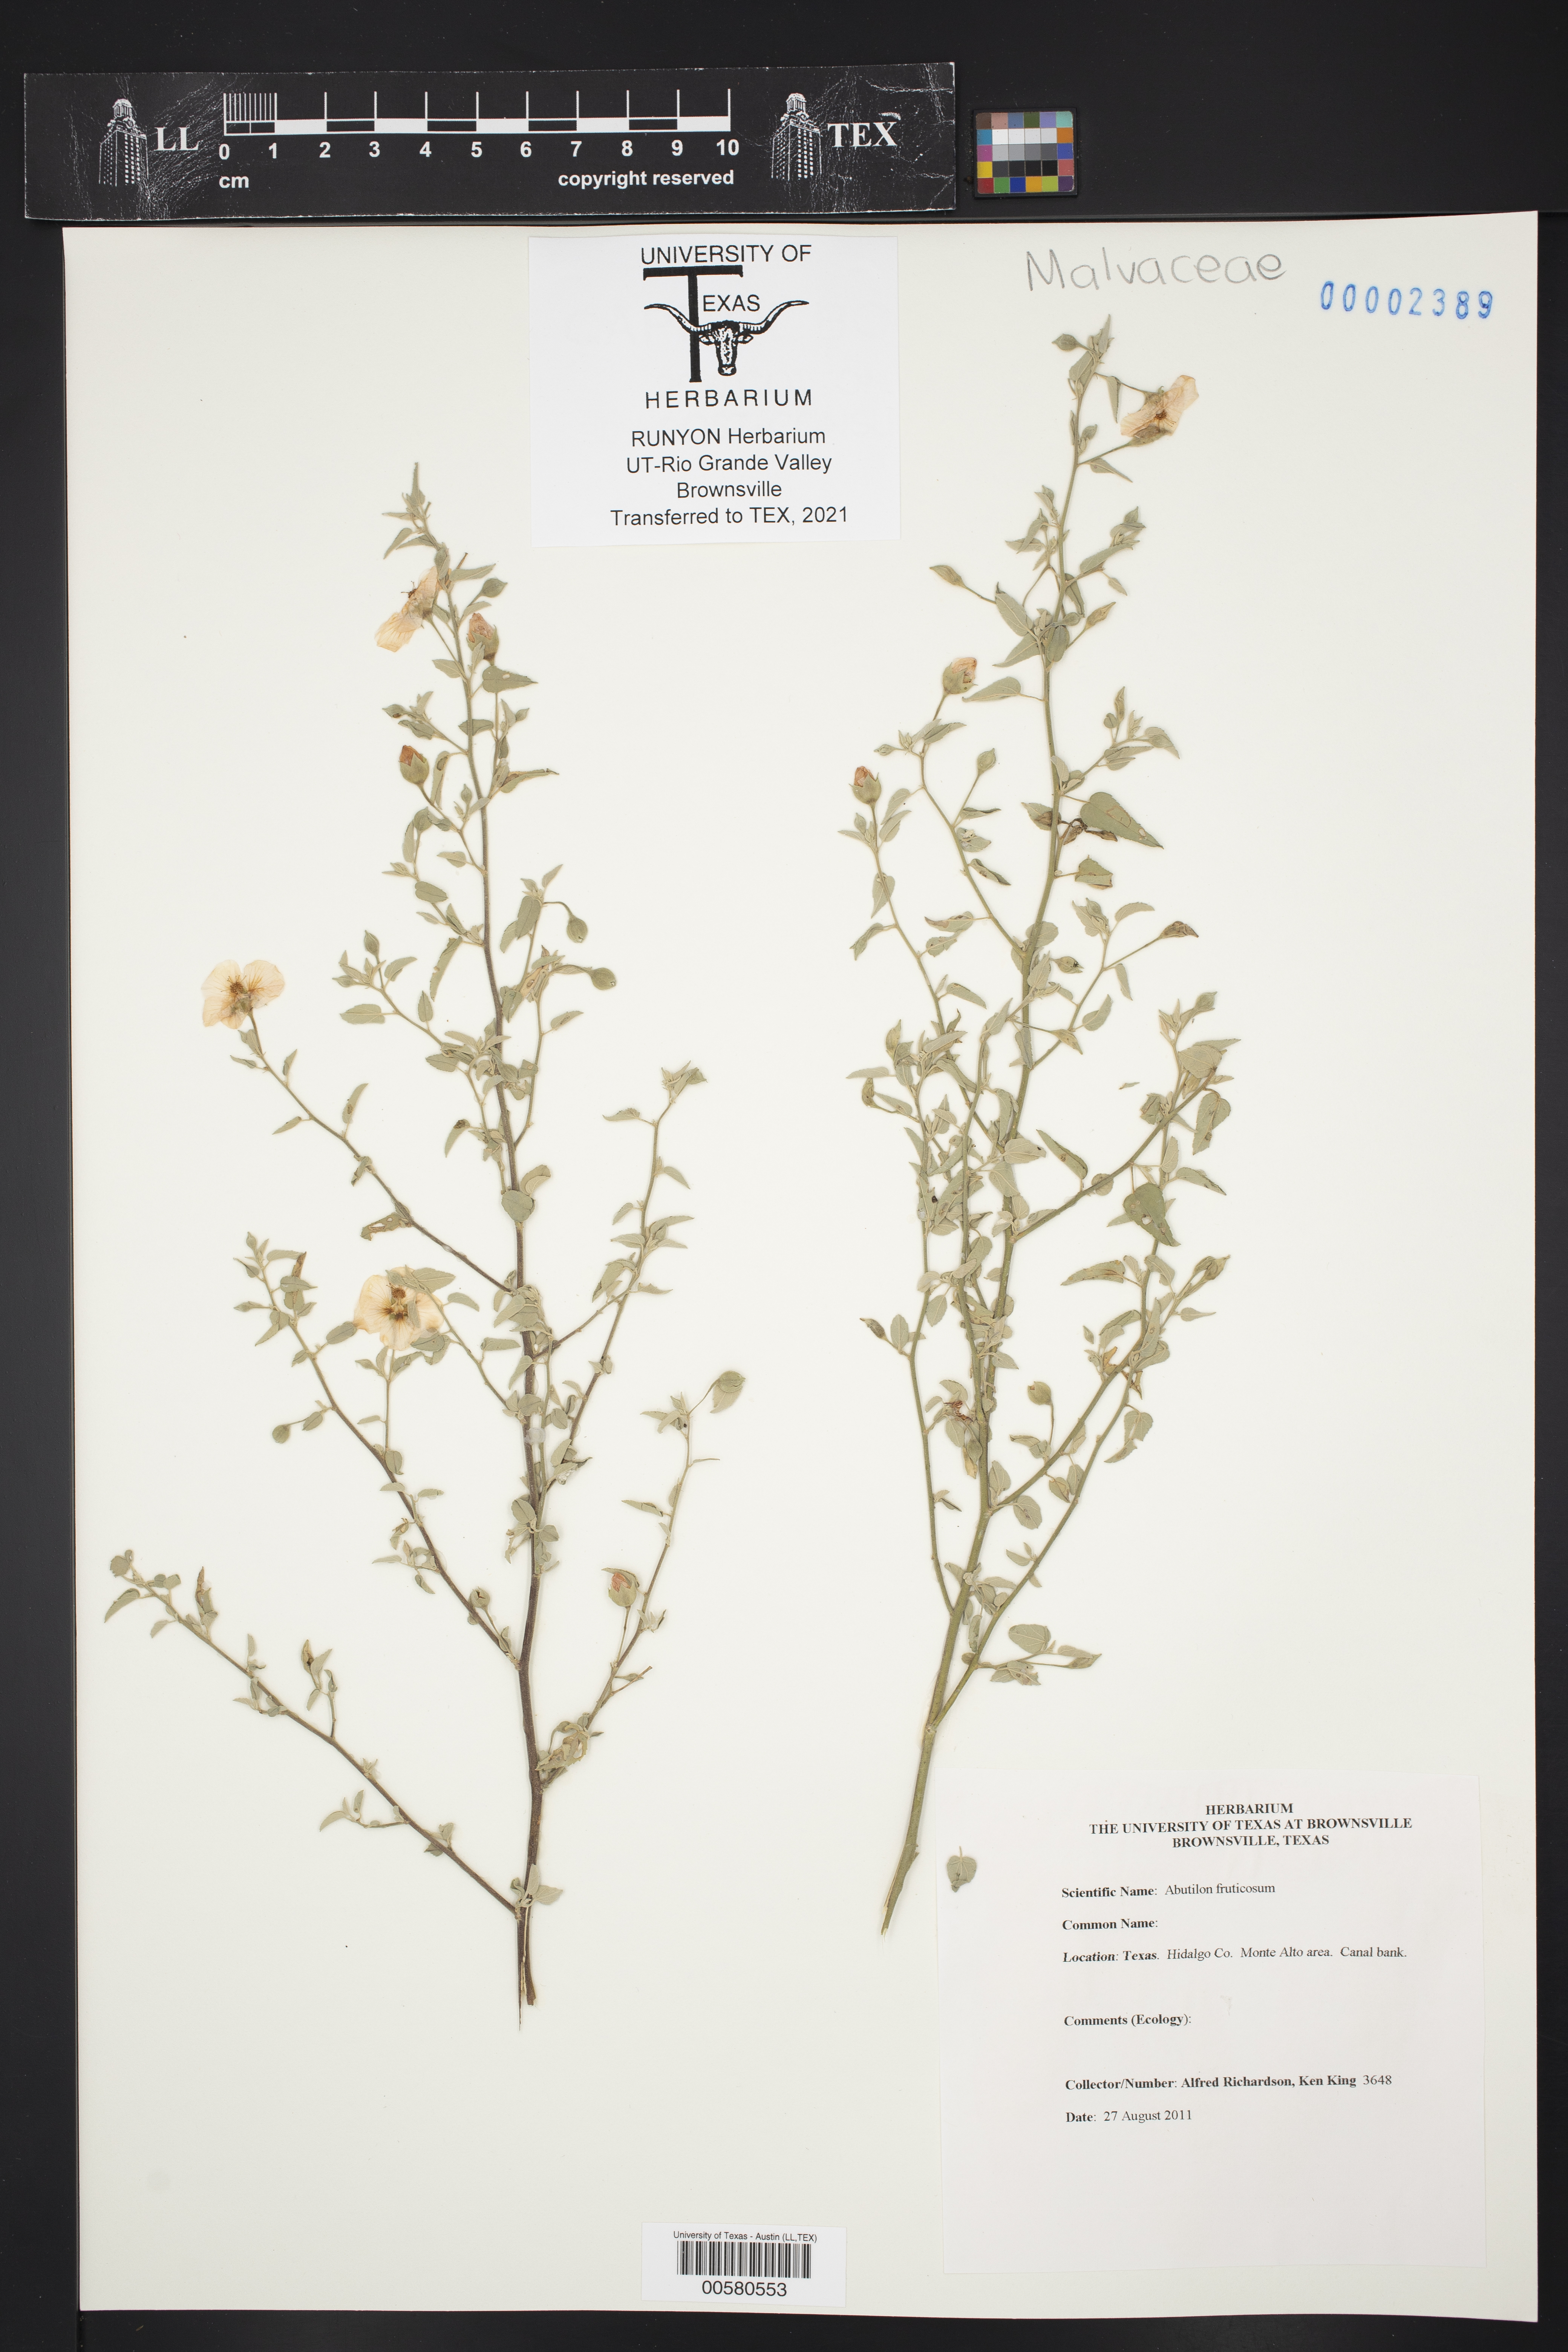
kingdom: Plantae
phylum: Tracheophyta
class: Magnoliopsida
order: Malvales
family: Malvaceae
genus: Abutilon
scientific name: Abutilon fruticosum
